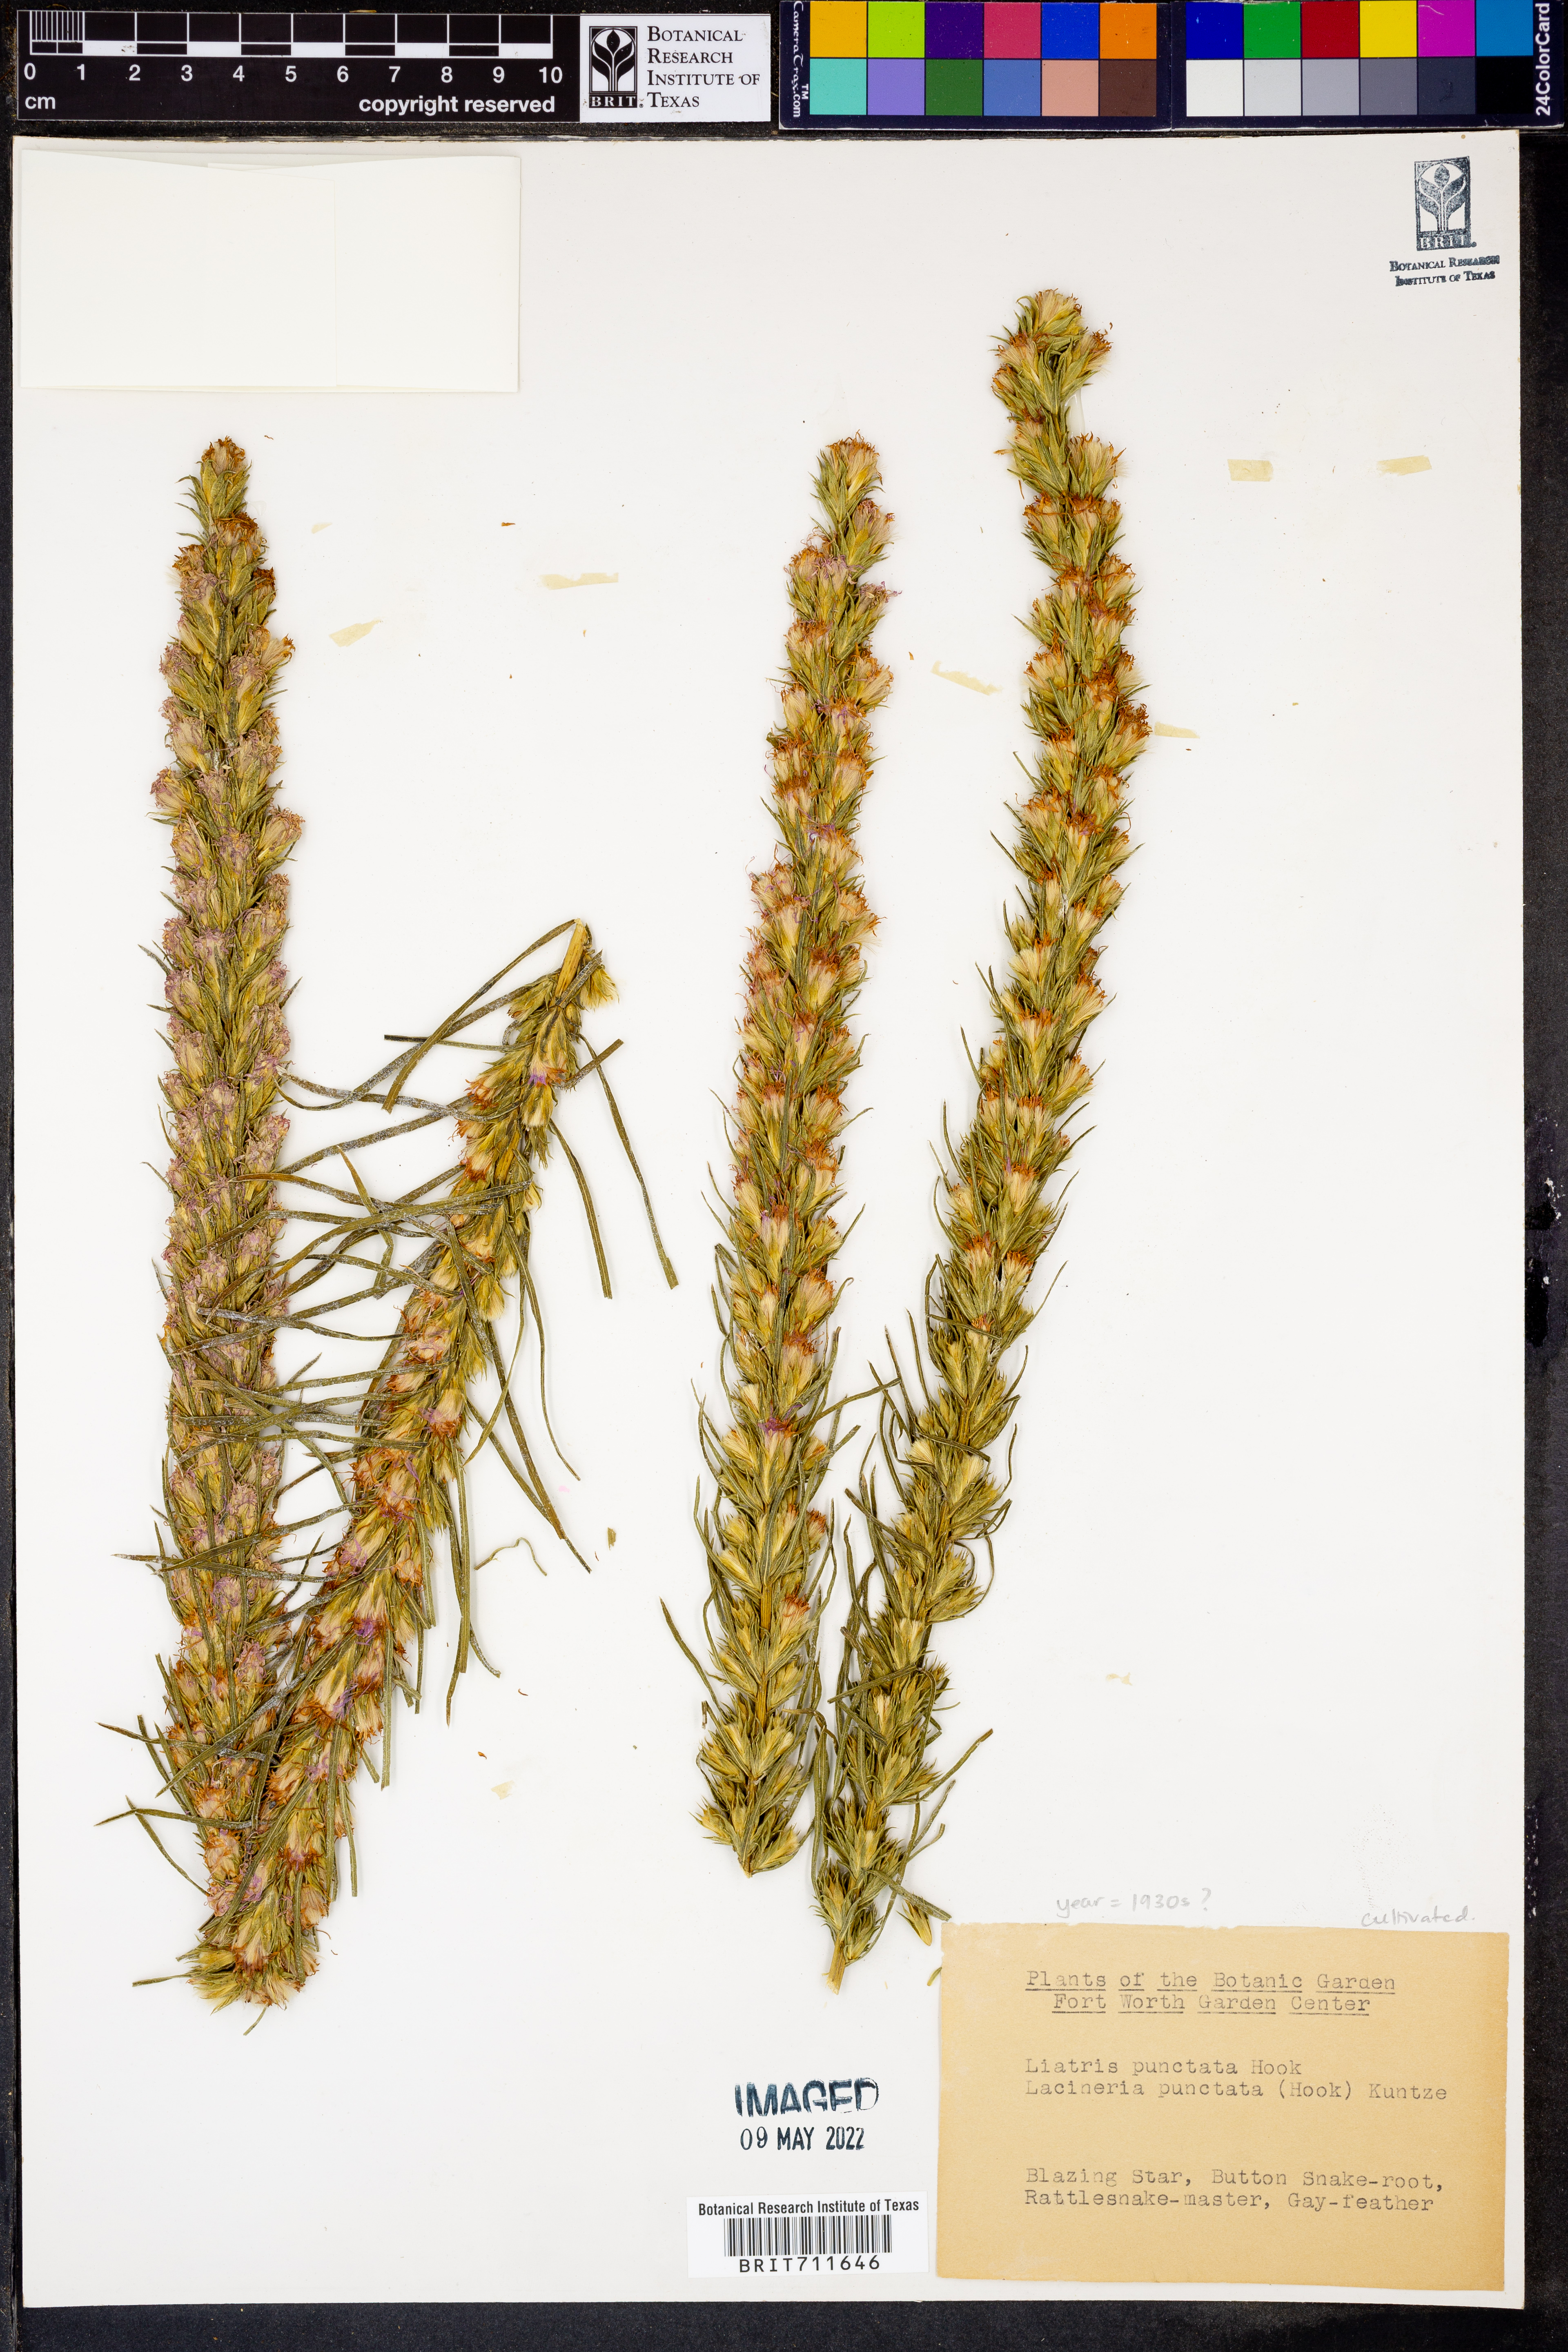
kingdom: Plantae
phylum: Tracheophyta
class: Magnoliopsida
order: Asterales
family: Asteraceae
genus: Liatris
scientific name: Liatris punctata
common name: Dotted gayfeather
